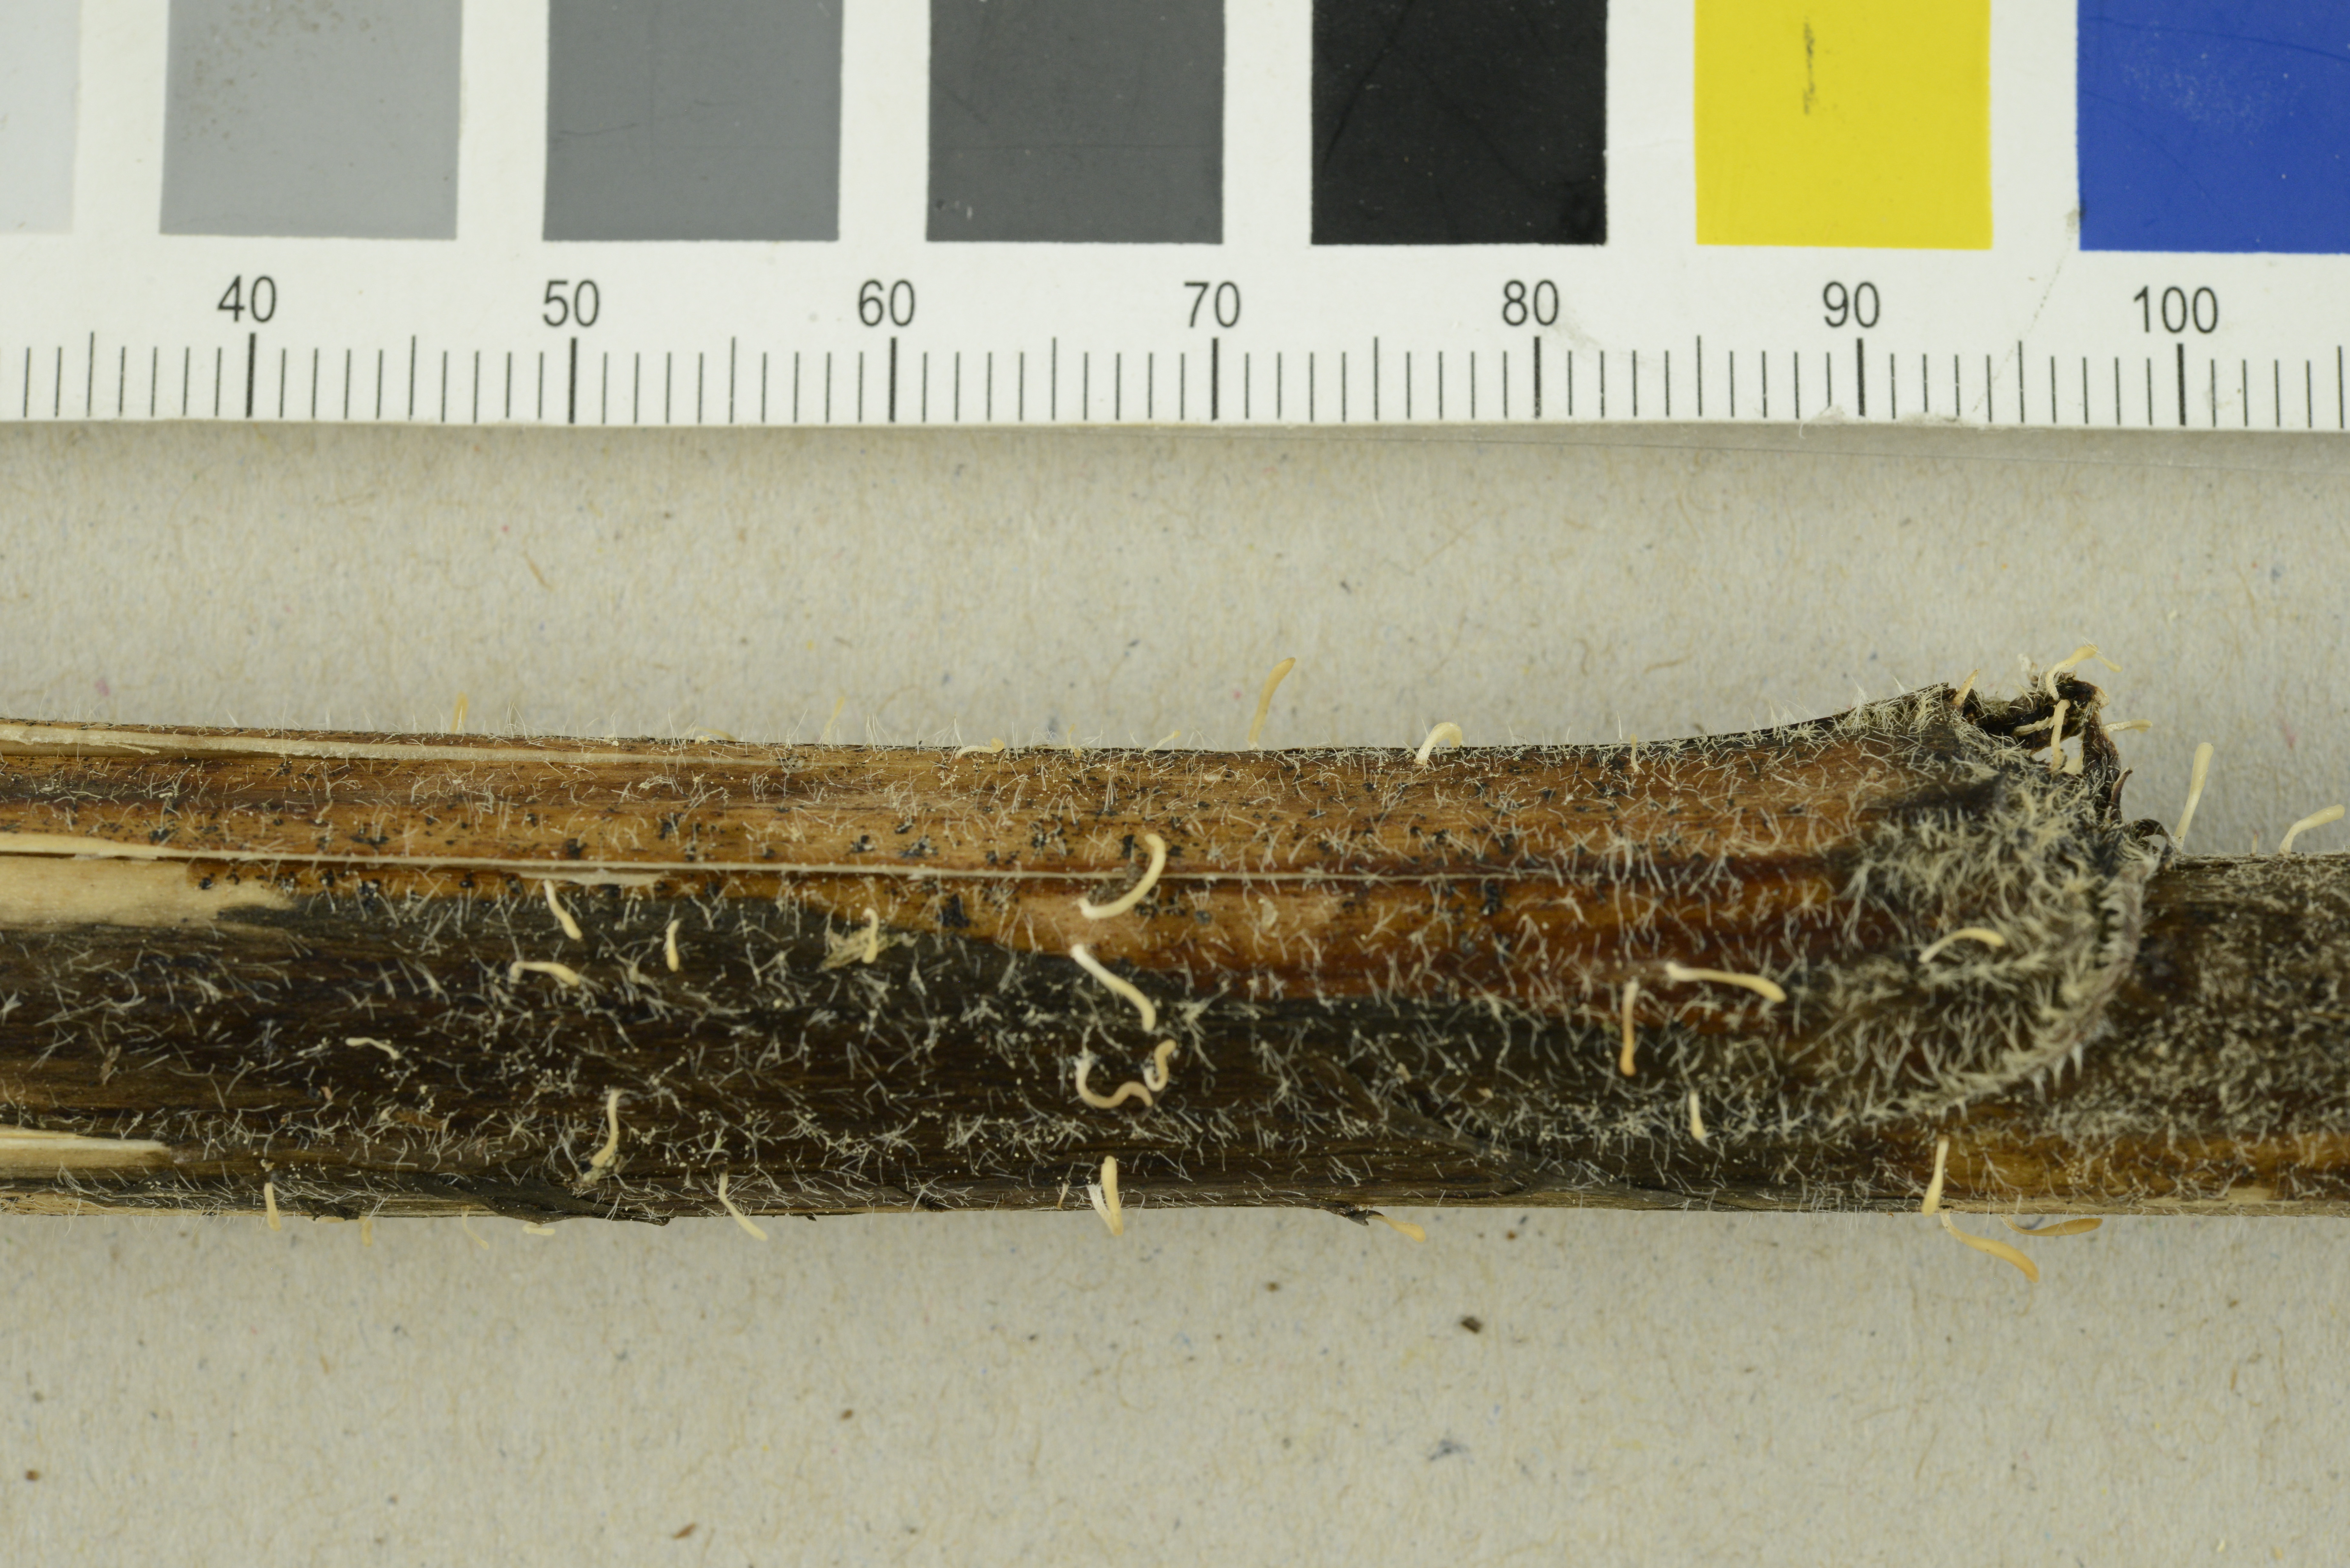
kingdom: Fungi
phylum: Basidiomycota
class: Agaricomycetes
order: Agaricales
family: Typhulaceae
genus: Typhula
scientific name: Typhula
